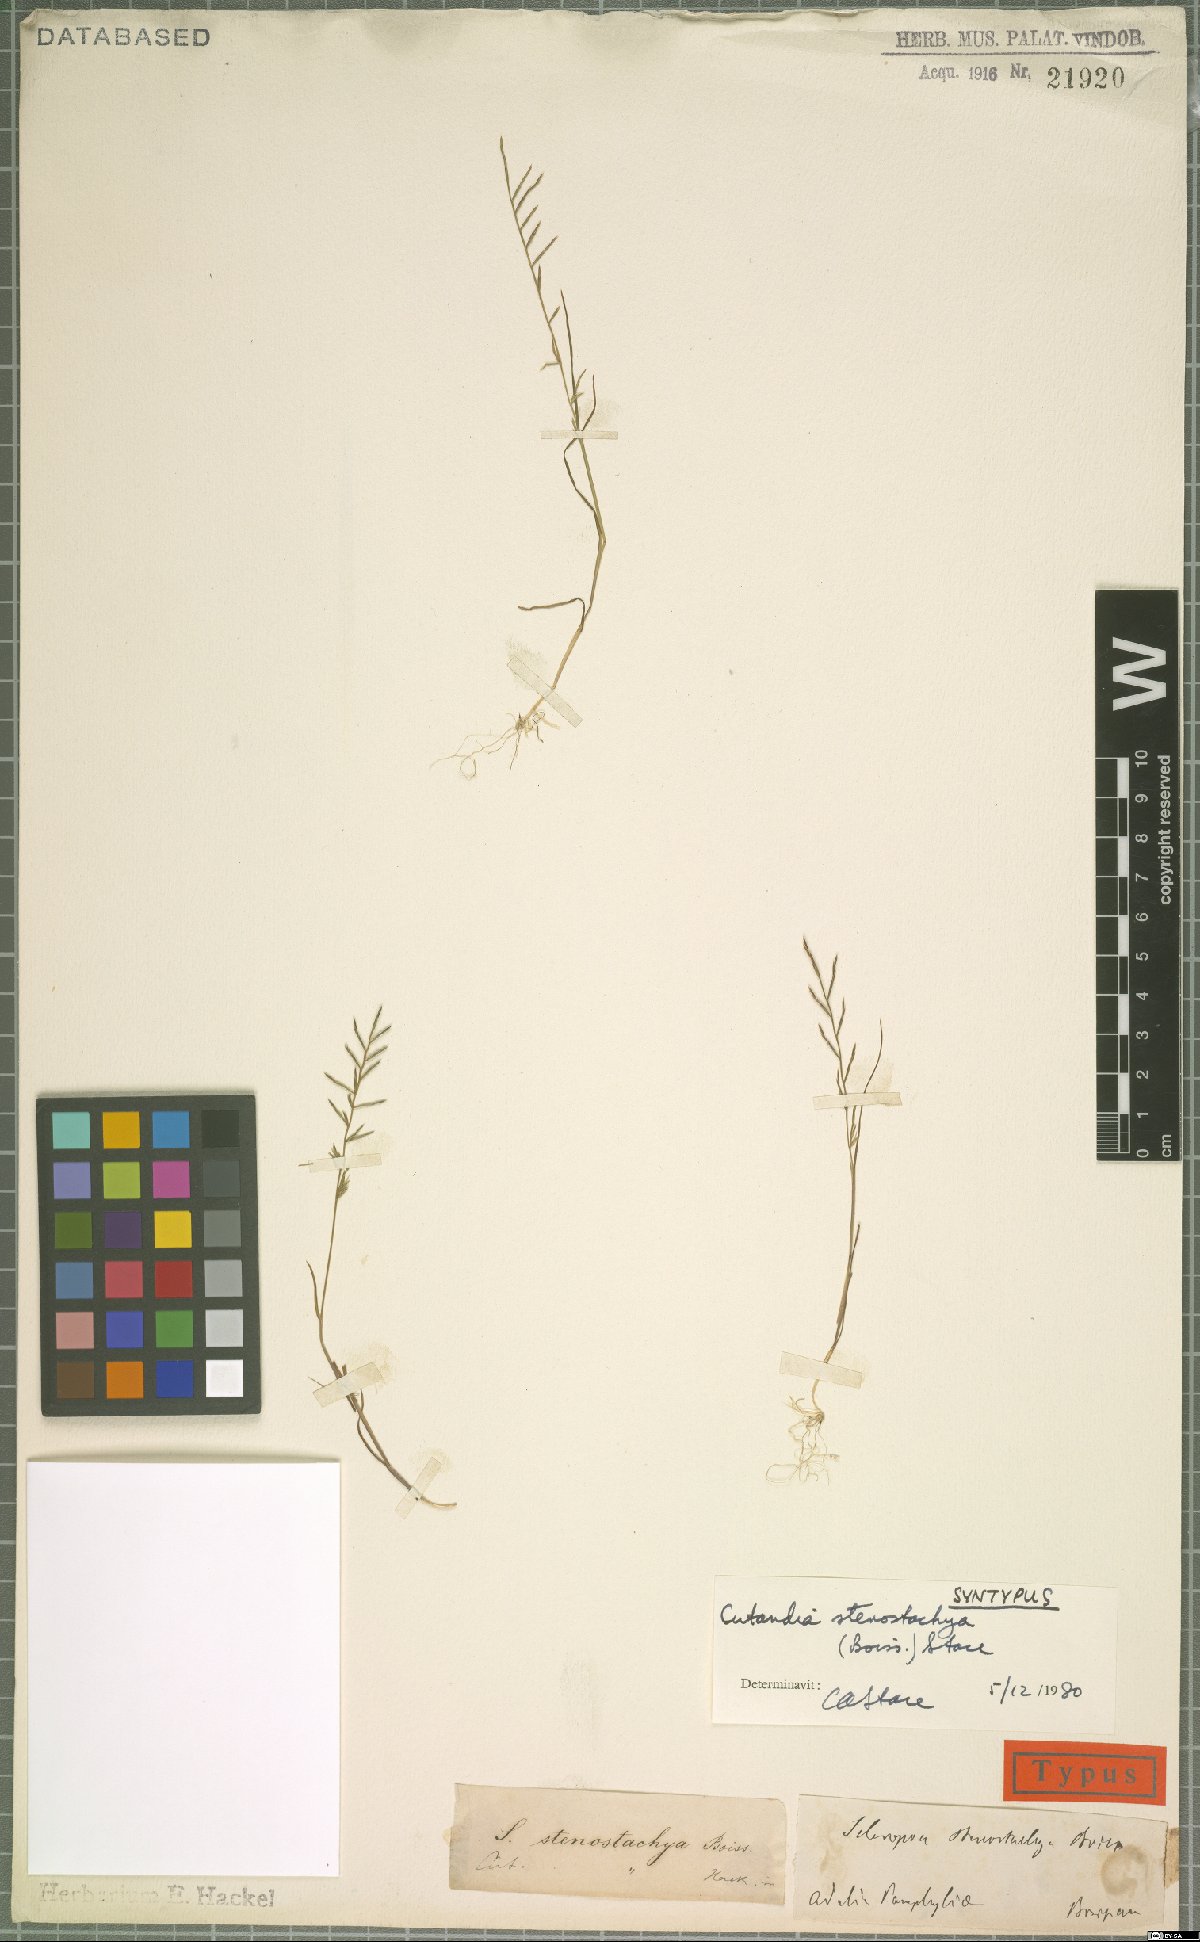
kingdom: Plantae
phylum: Tracheophyta
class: Liliopsida
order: Poales
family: Poaceae
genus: Cutandia
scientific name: Cutandia stenostachya
